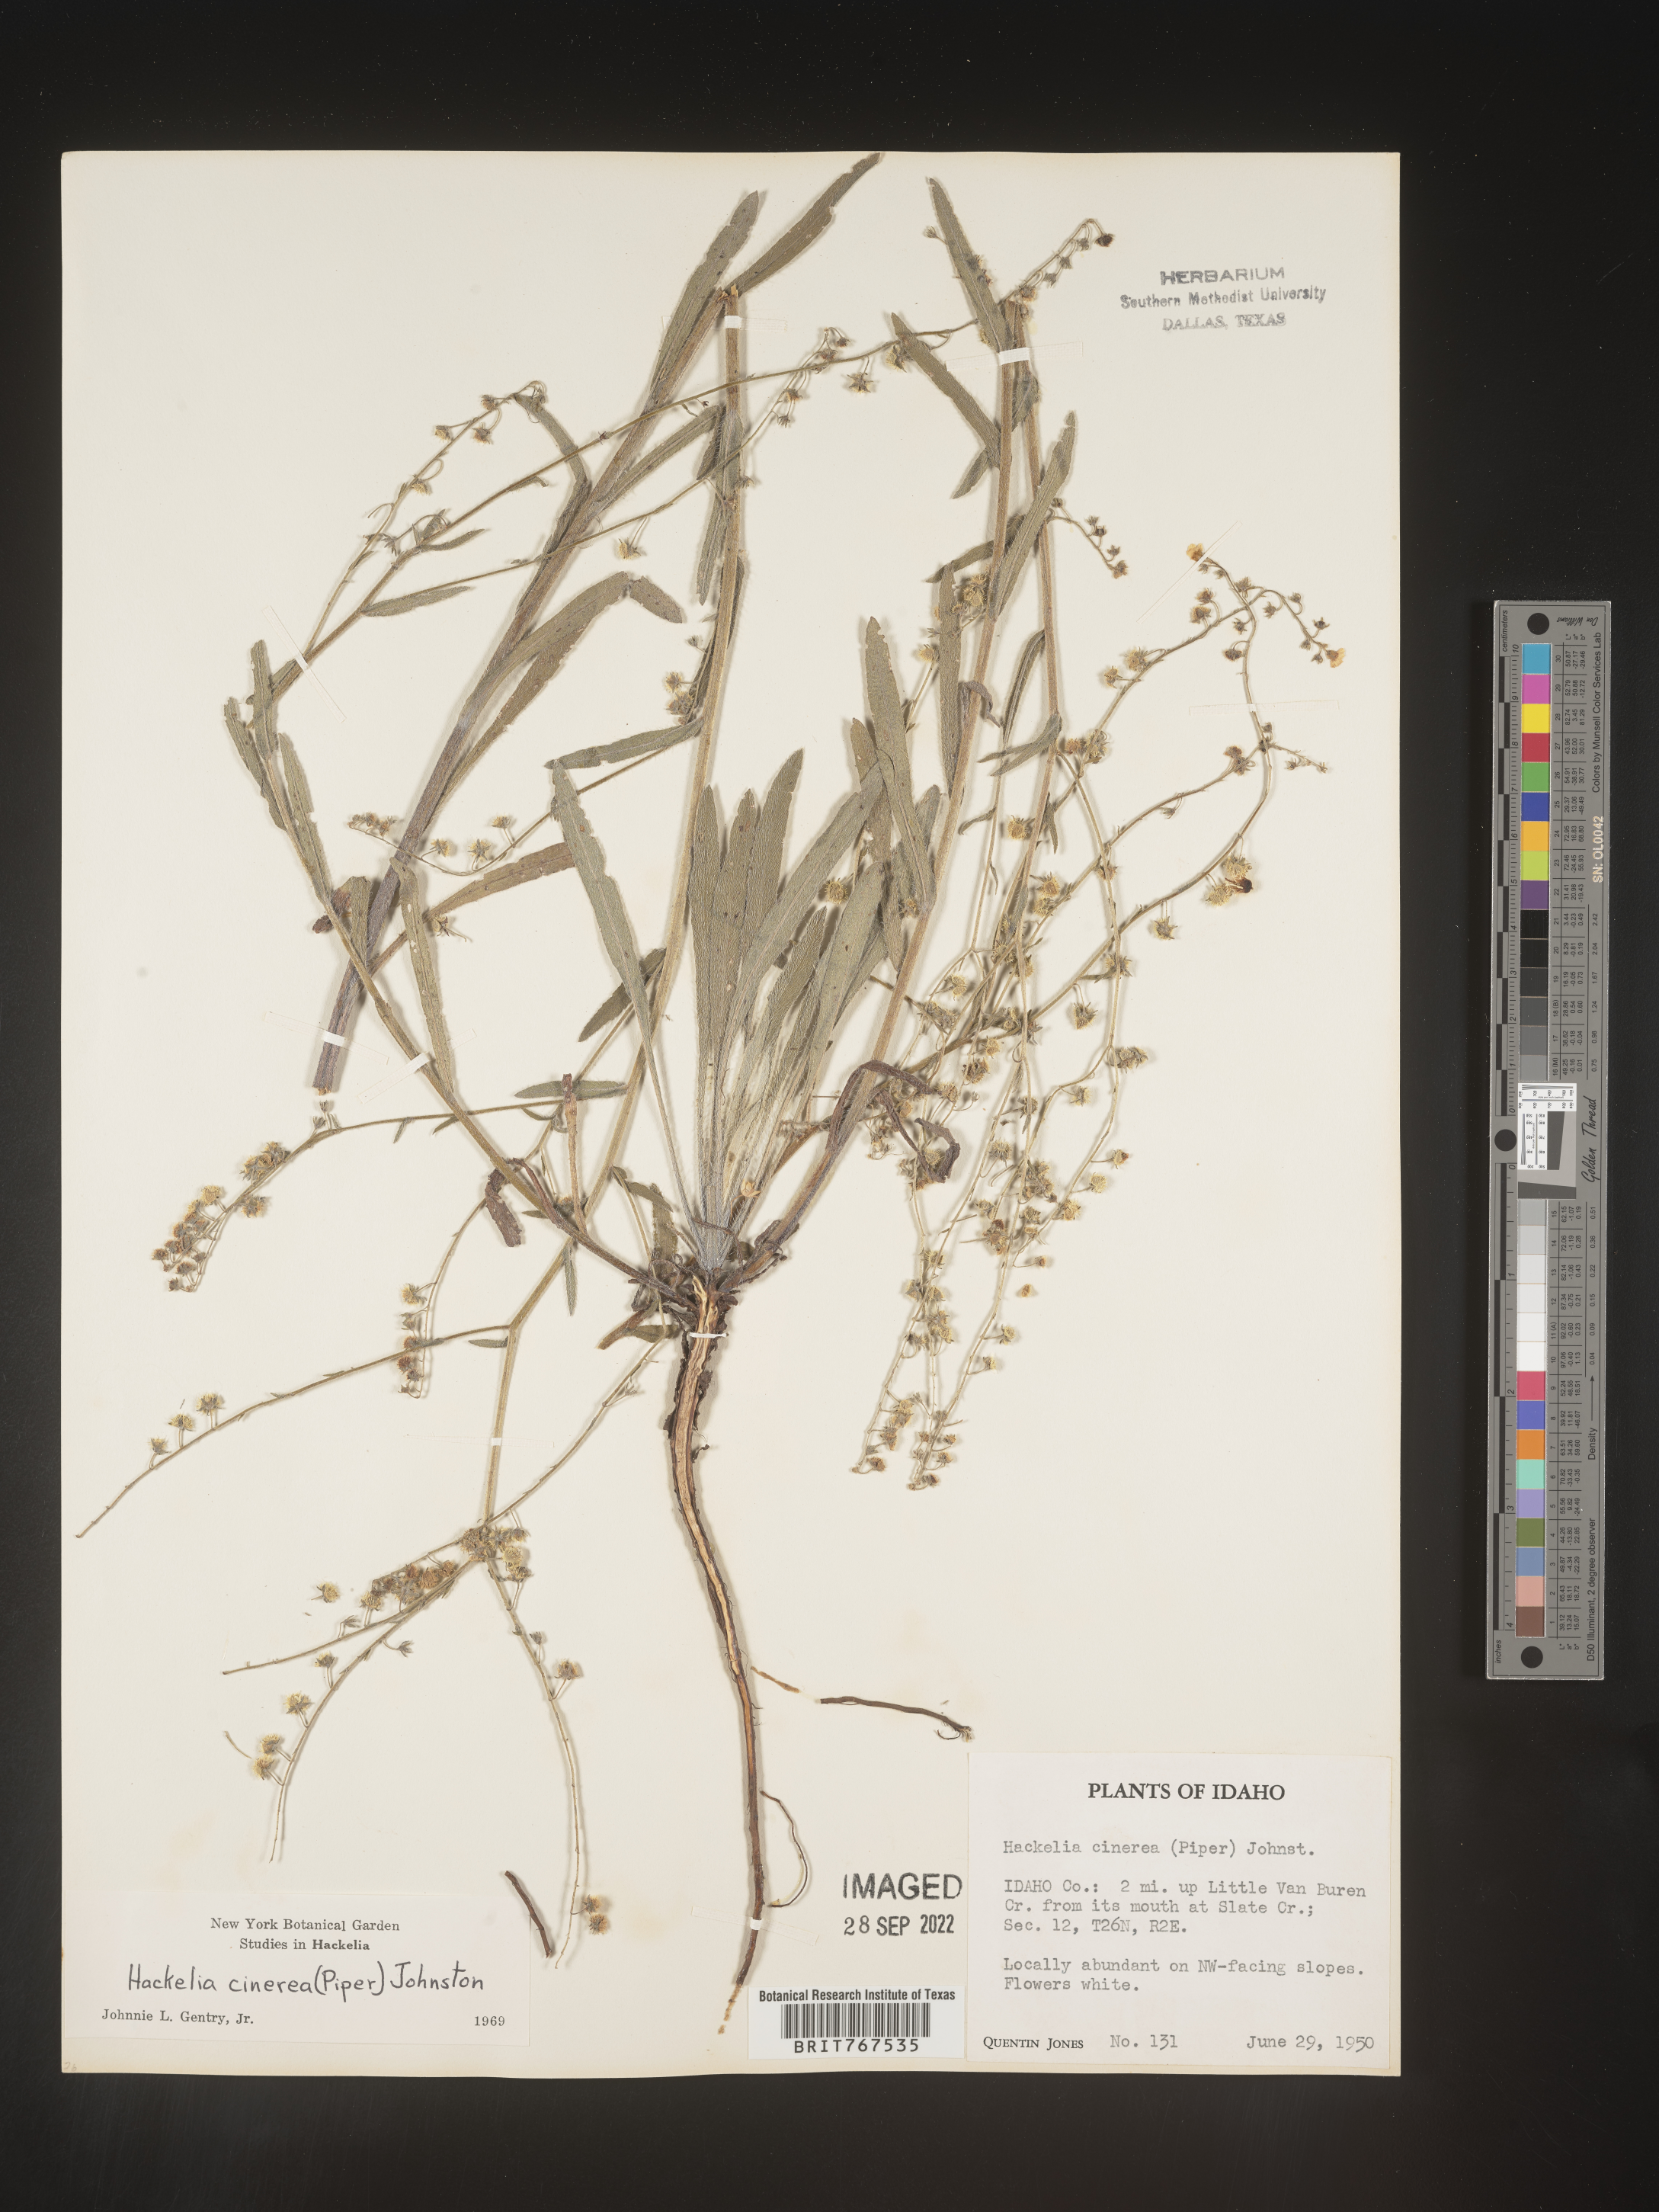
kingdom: Plantae
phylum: Tracheophyta
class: Magnoliopsida
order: Boraginales
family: Boraginaceae
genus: Hackelia
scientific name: Hackelia
